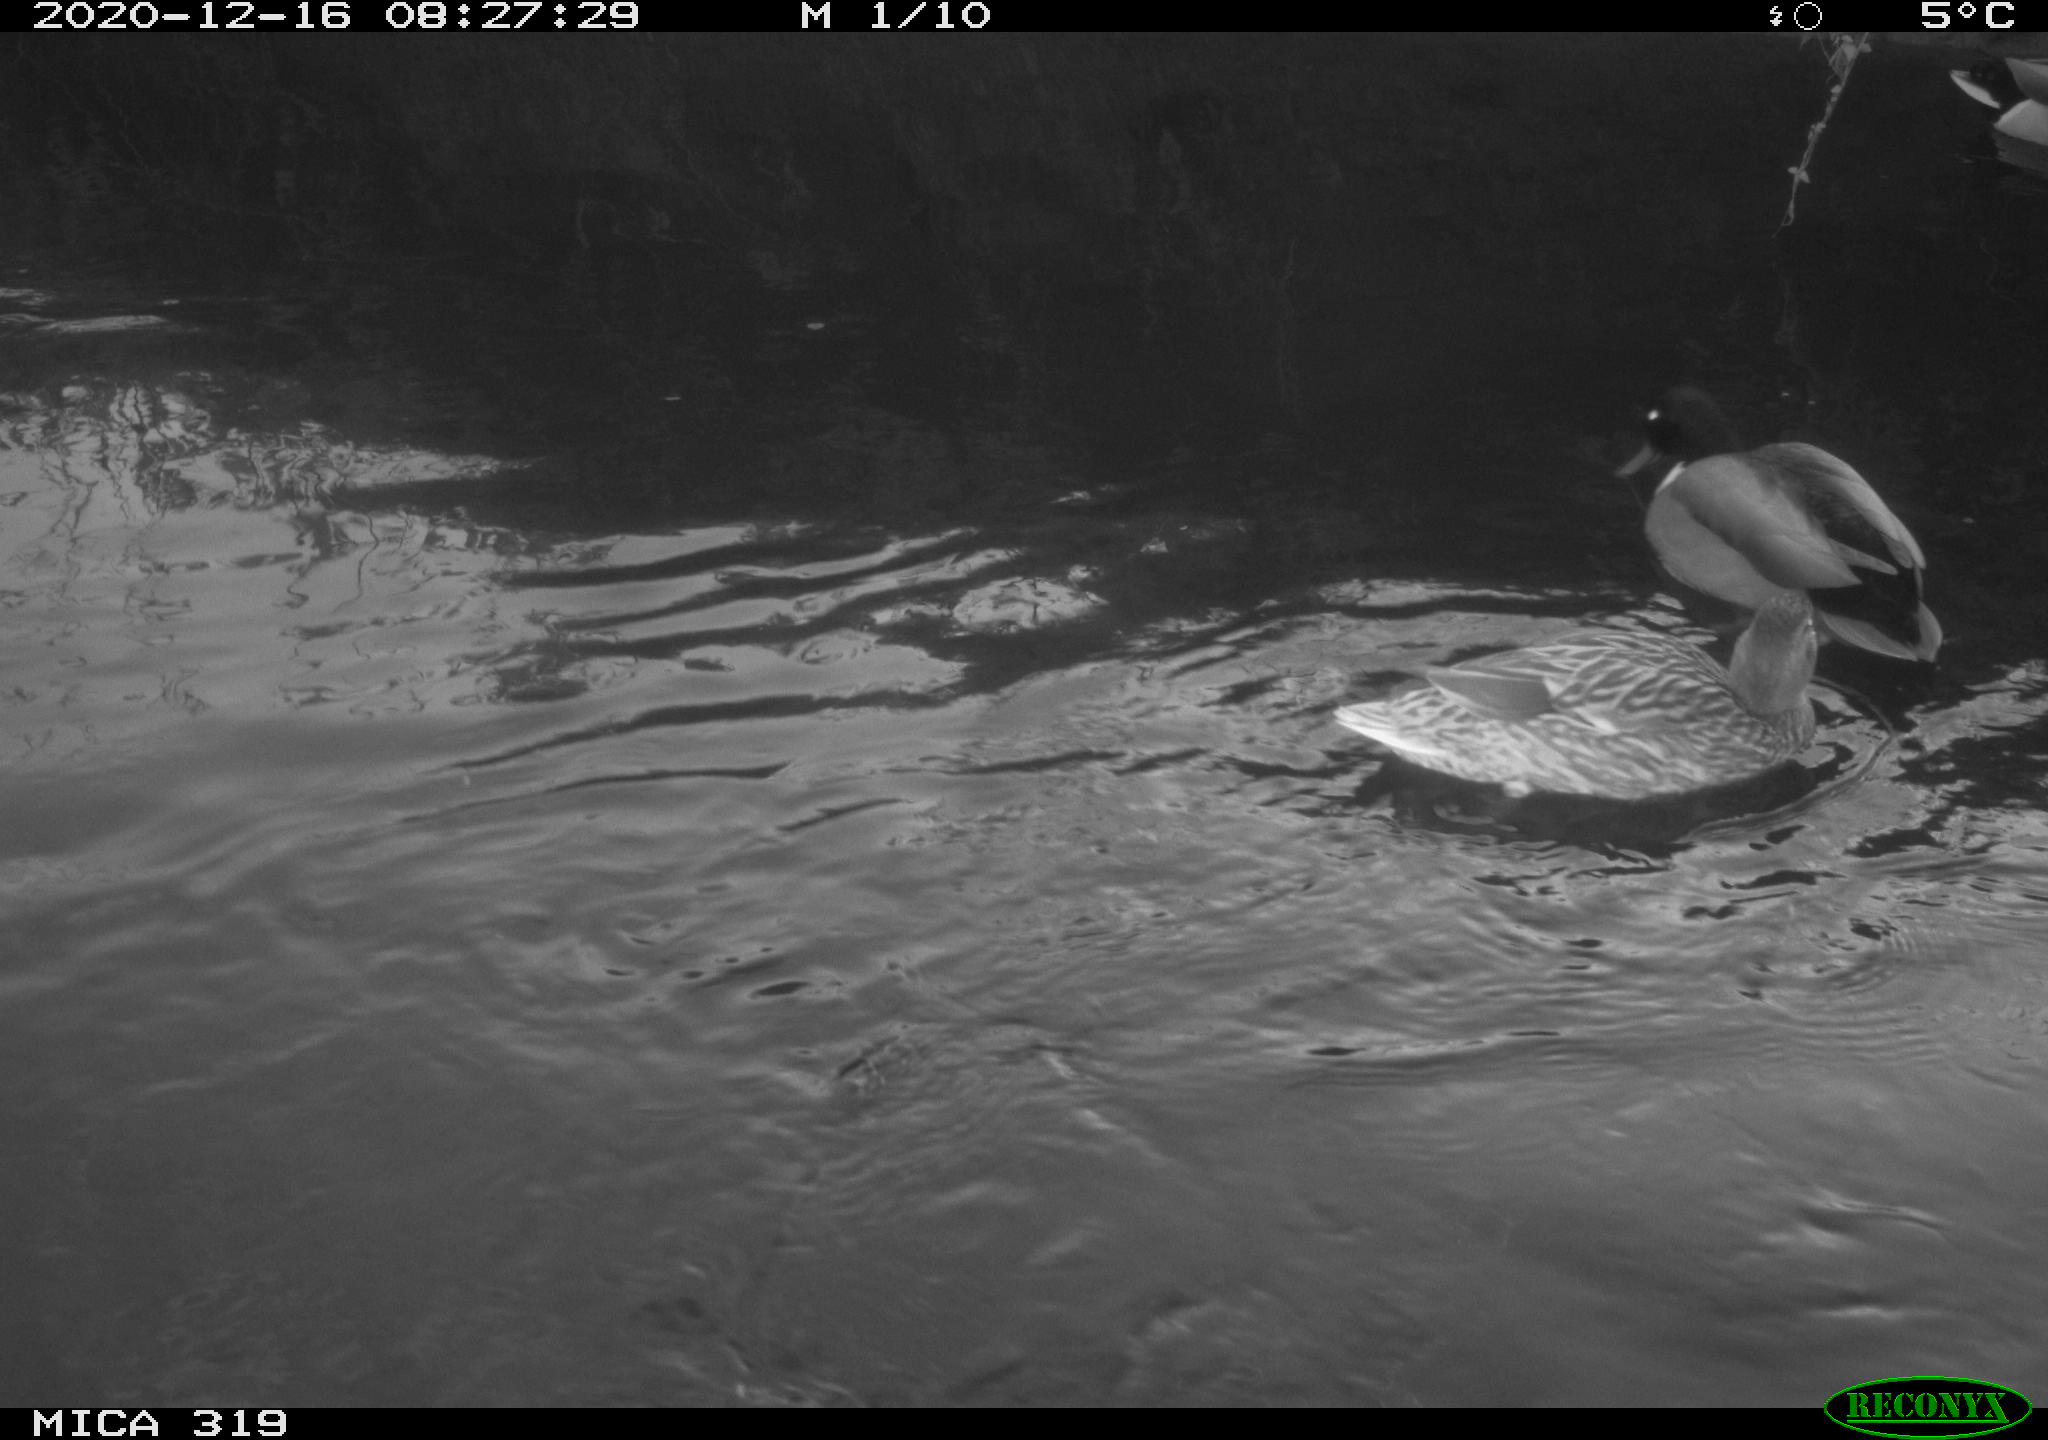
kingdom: Animalia
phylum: Chordata
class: Aves
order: Anseriformes
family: Anatidae
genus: Anas
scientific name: Anas platyrhynchos
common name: Mallard
